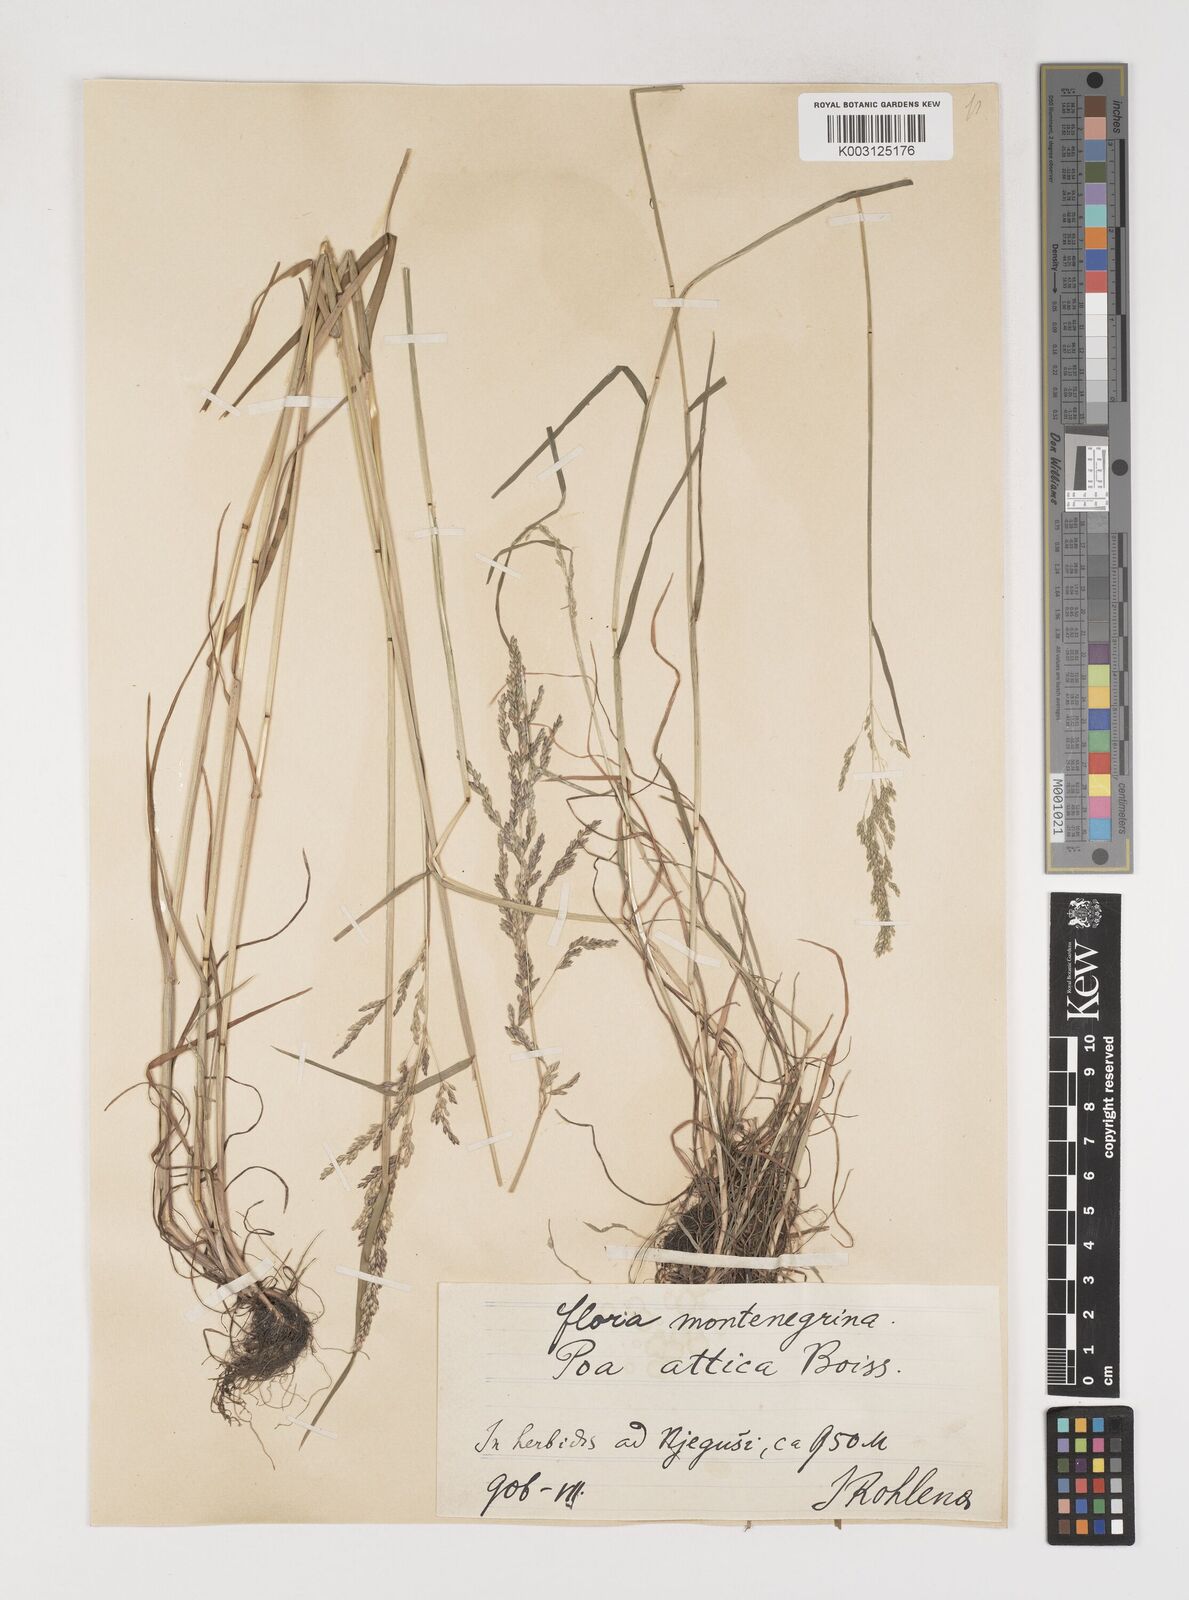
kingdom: Plantae
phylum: Tracheophyta
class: Liliopsida
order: Poales
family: Poaceae
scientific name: Poaceae
